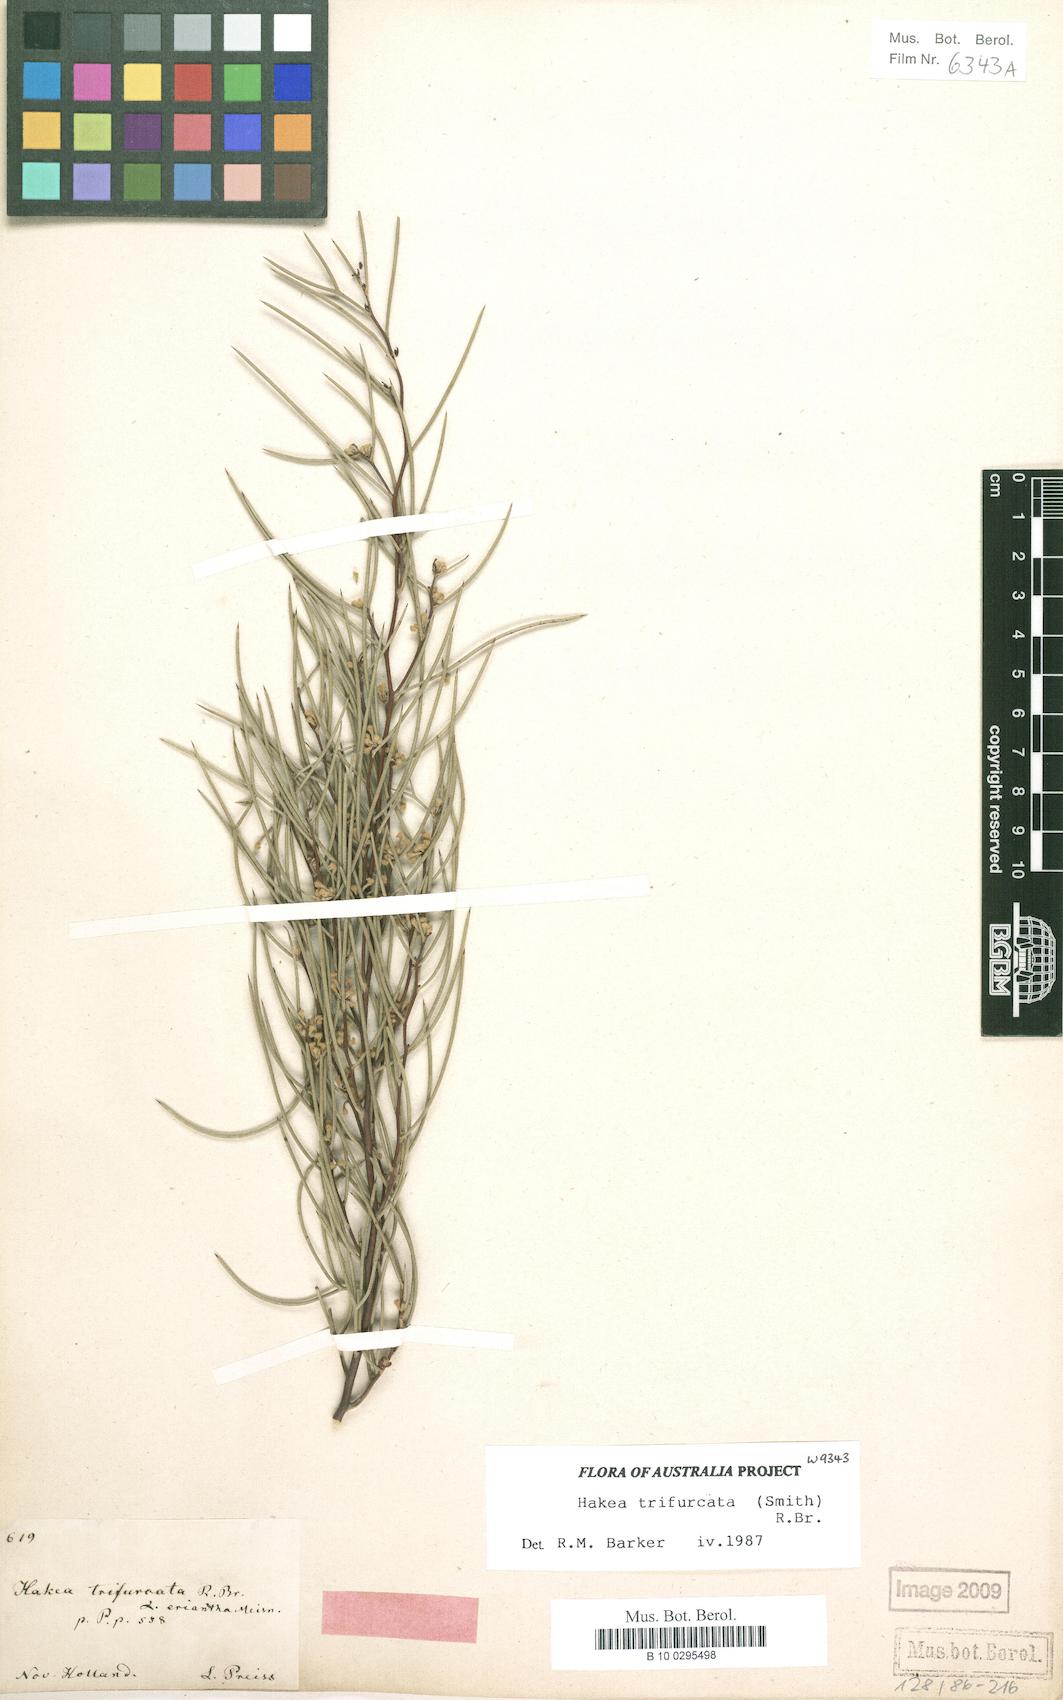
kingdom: Plantae
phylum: Tracheophyta
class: Magnoliopsida
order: Proteales
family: Proteaceae
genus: Hakea
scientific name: Hakea trifurcata
